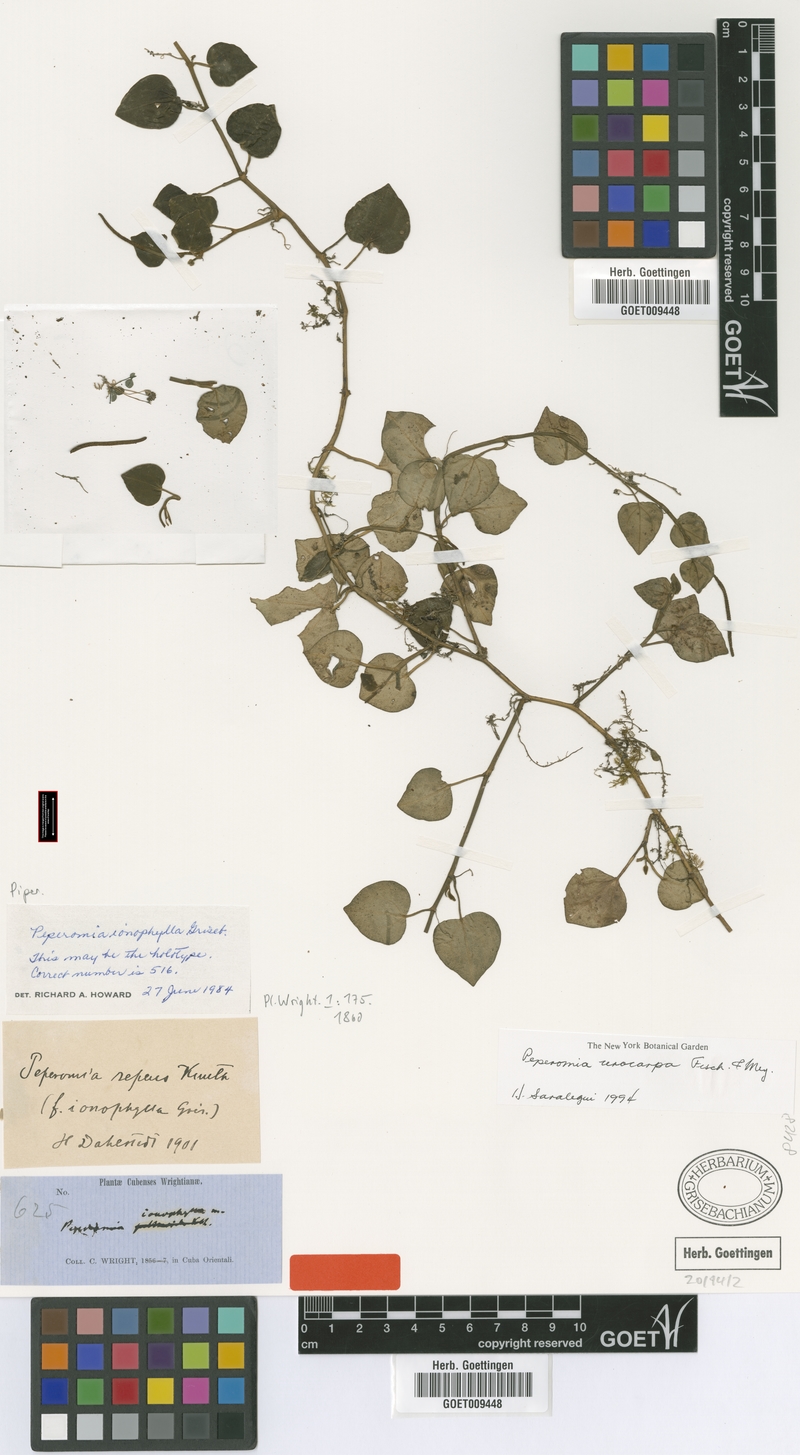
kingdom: Plantae
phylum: Tracheophyta
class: Magnoliopsida
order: Piperales
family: Piperaceae
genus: Peperomia
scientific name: Peperomia urocarpa
